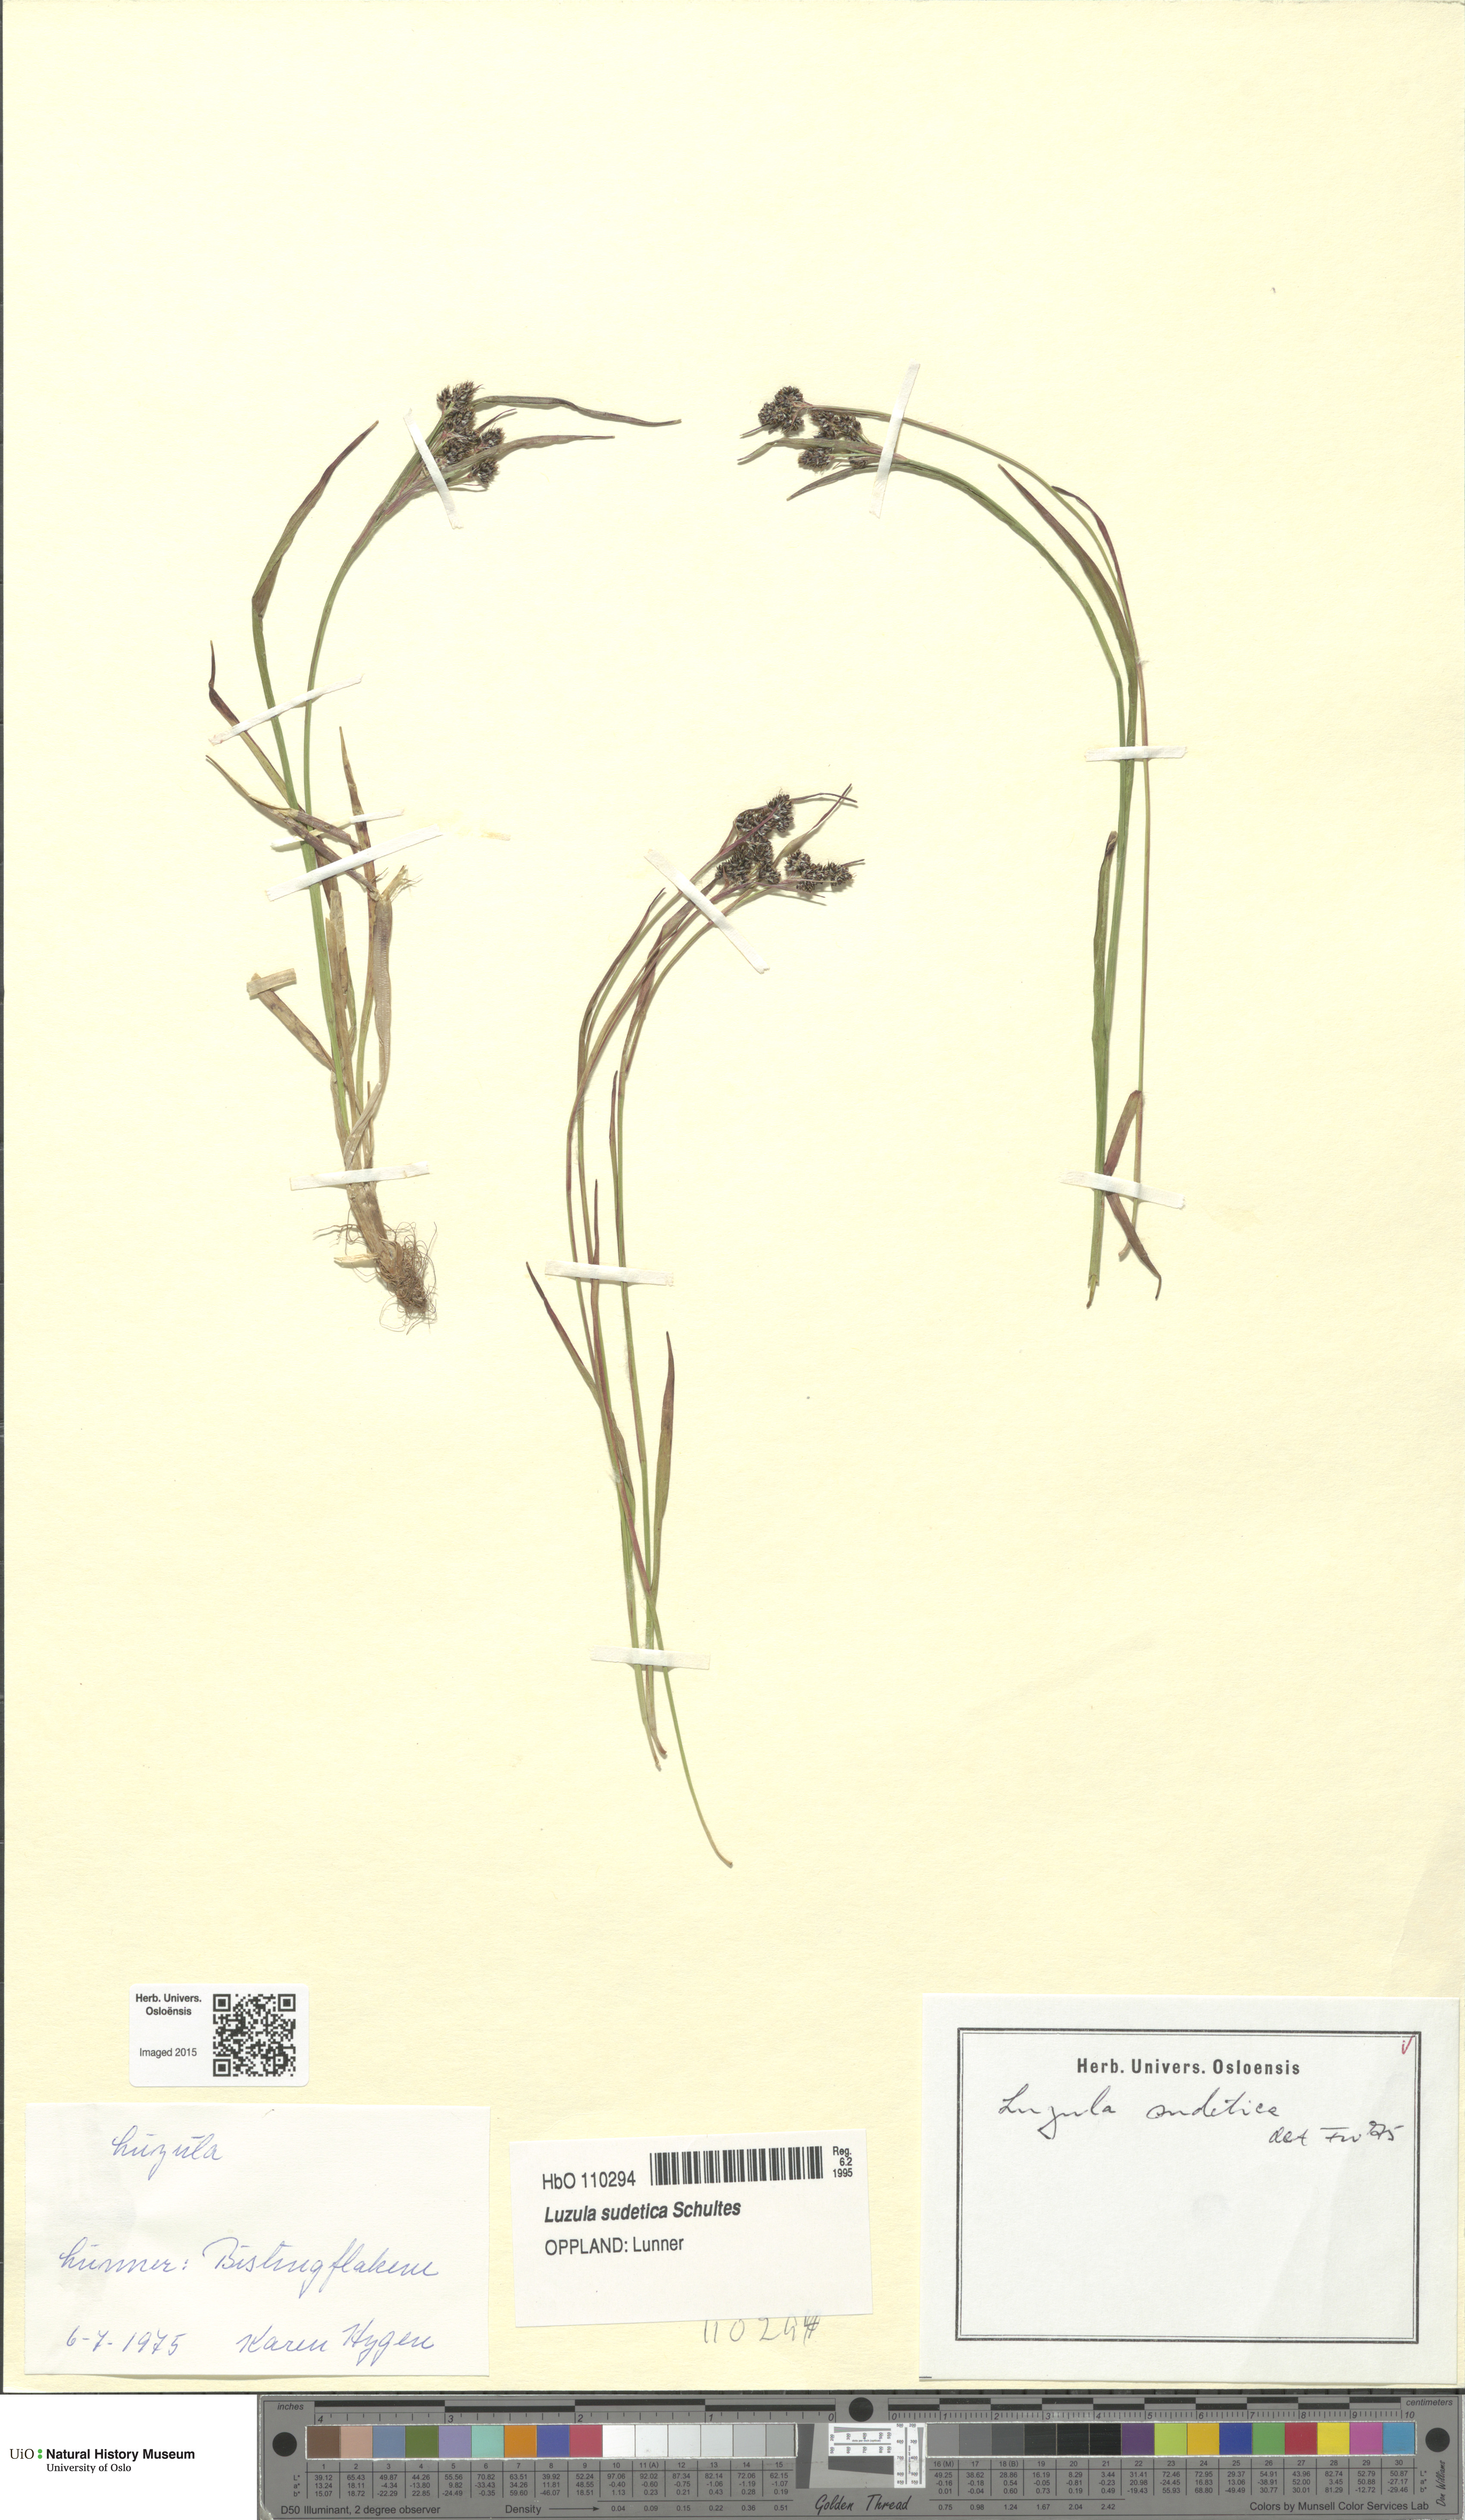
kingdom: Plantae
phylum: Tracheophyta
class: Liliopsida
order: Poales
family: Juncaceae
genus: Luzula
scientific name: Luzula sudetica
